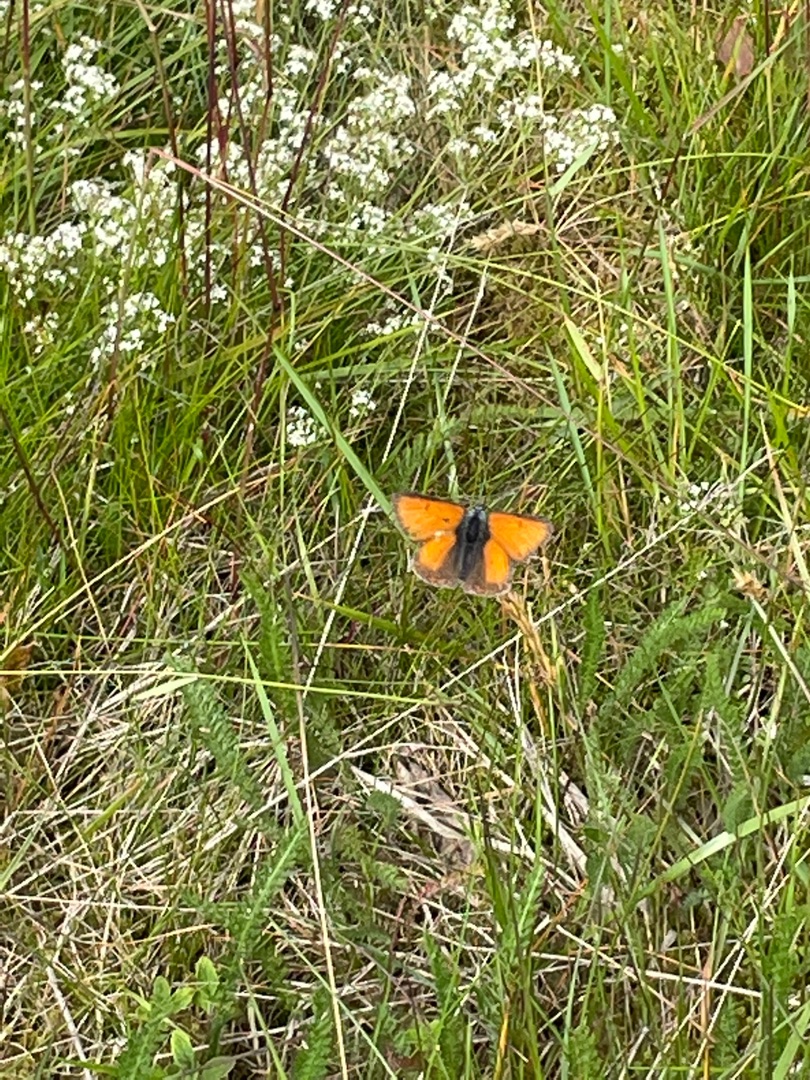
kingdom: Animalia
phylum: Arthropoda
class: Insecta
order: Lepidoptera
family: Lycaenidae
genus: Palaeochrysophanus
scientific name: Palaeochrysophanus hippothoe
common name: Violetrandet ildfugl
